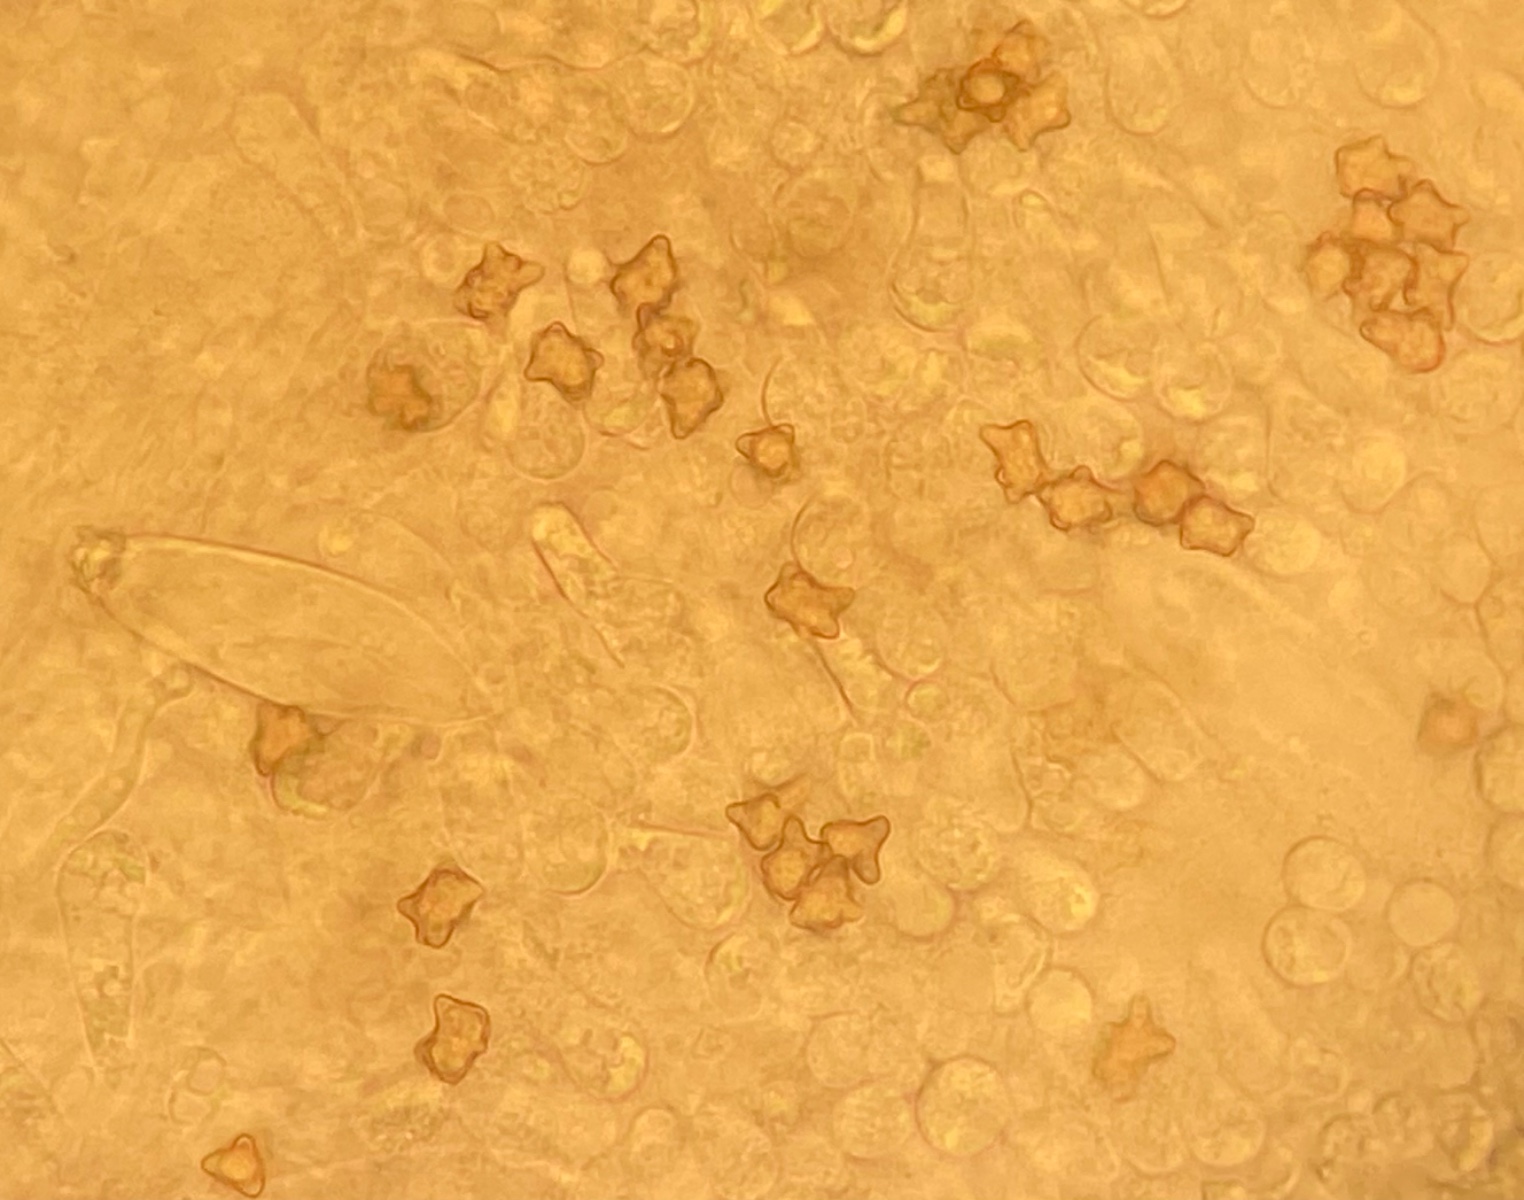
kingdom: Fungi
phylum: Basidiomycota
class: Agaricomycetes
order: Agaricales
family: Inocybaceae
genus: Inocybe
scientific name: Inocybe napipes
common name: roeknoldet trævlhat
